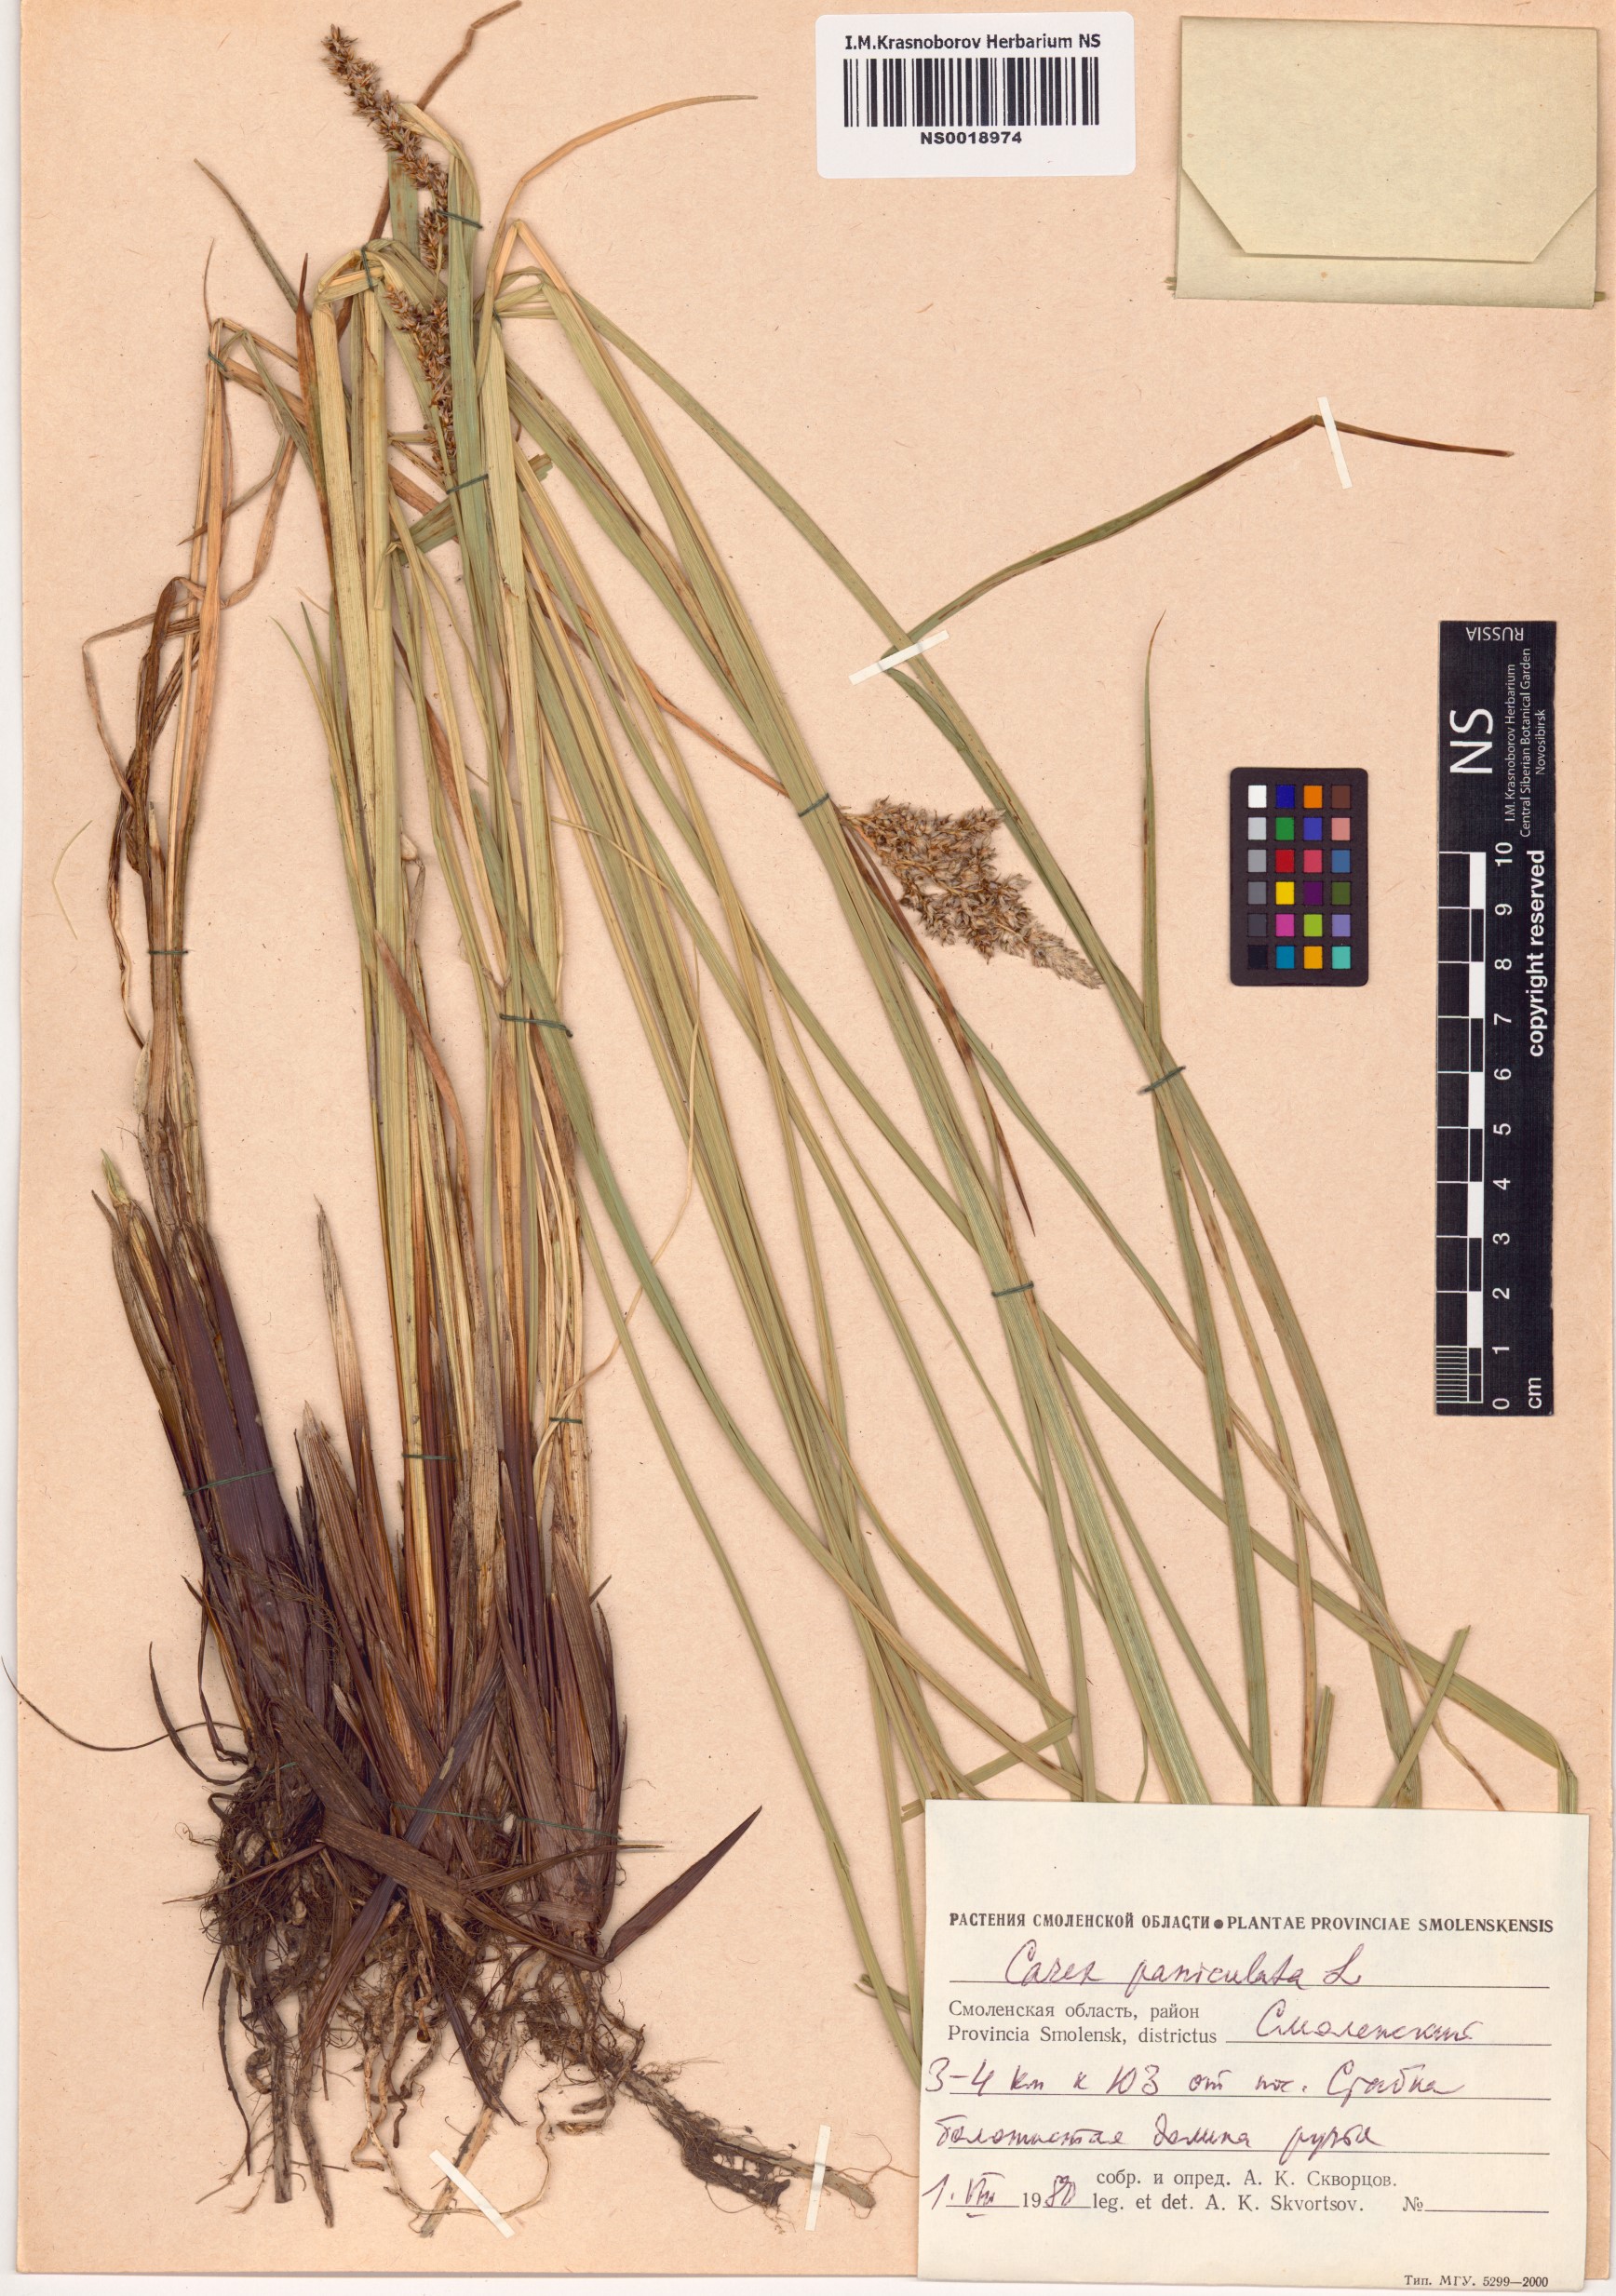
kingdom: Plantae
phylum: Tracheophyta
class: Liliopsida
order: Poales
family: Cyperaceae
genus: Carex
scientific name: Carex paniculata
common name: Greater tussock-sedge
